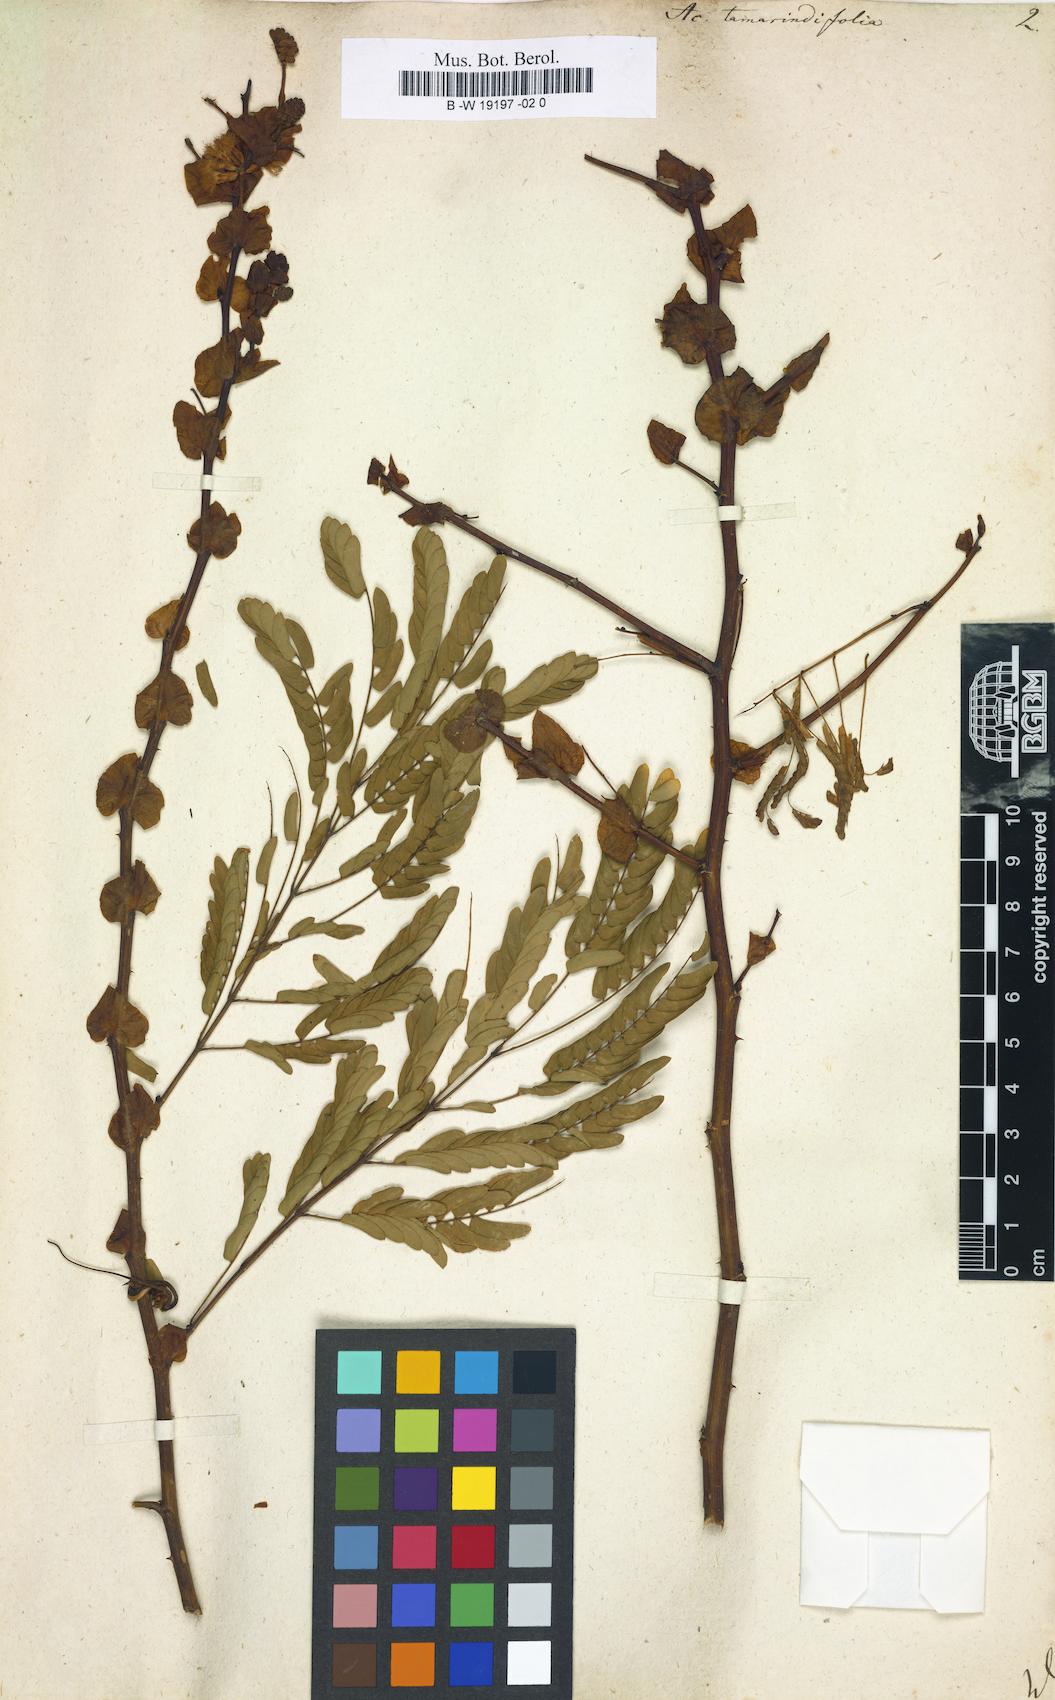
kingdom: Plantae
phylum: Tracheophyta
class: Magnoliopsida
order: Fabales
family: Fabaceae
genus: Senegalia
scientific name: Senegalia tamarindifolia
